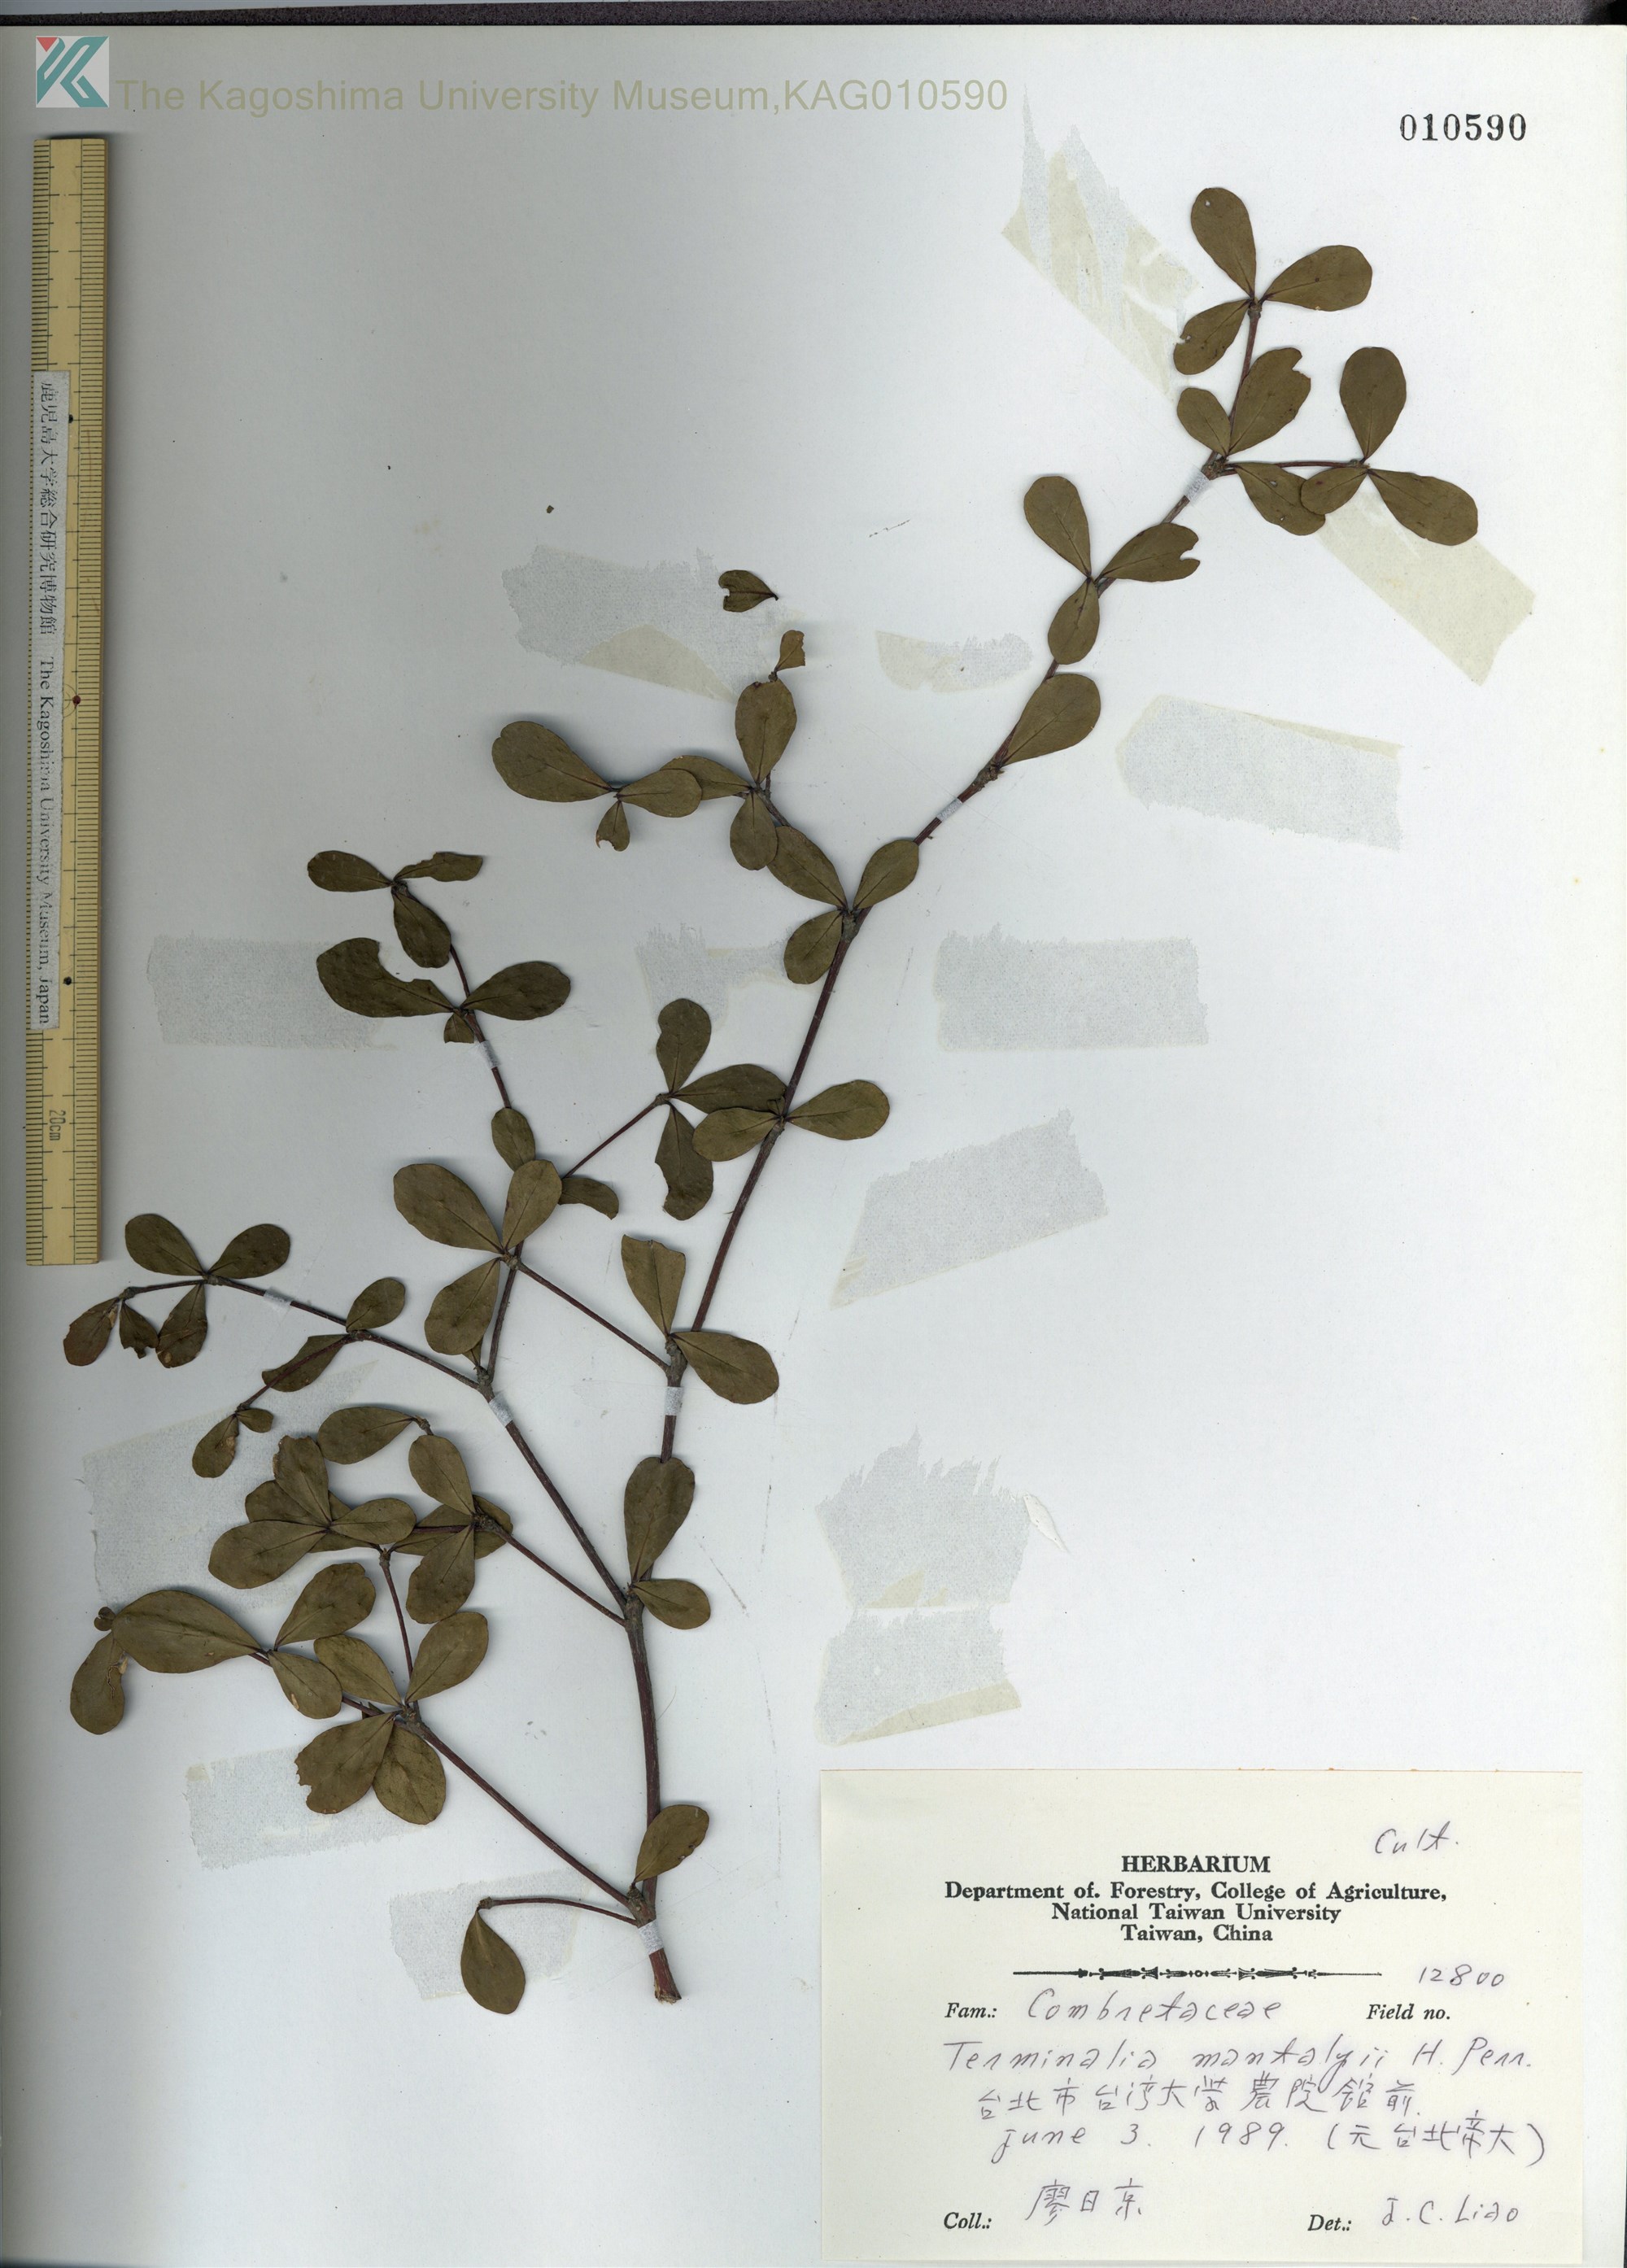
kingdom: Plantae
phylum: Tracheophyta
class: Magnoliopsida
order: Myrtales
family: Combretaceae
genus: Terminalia
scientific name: Terminalia neotaliala
